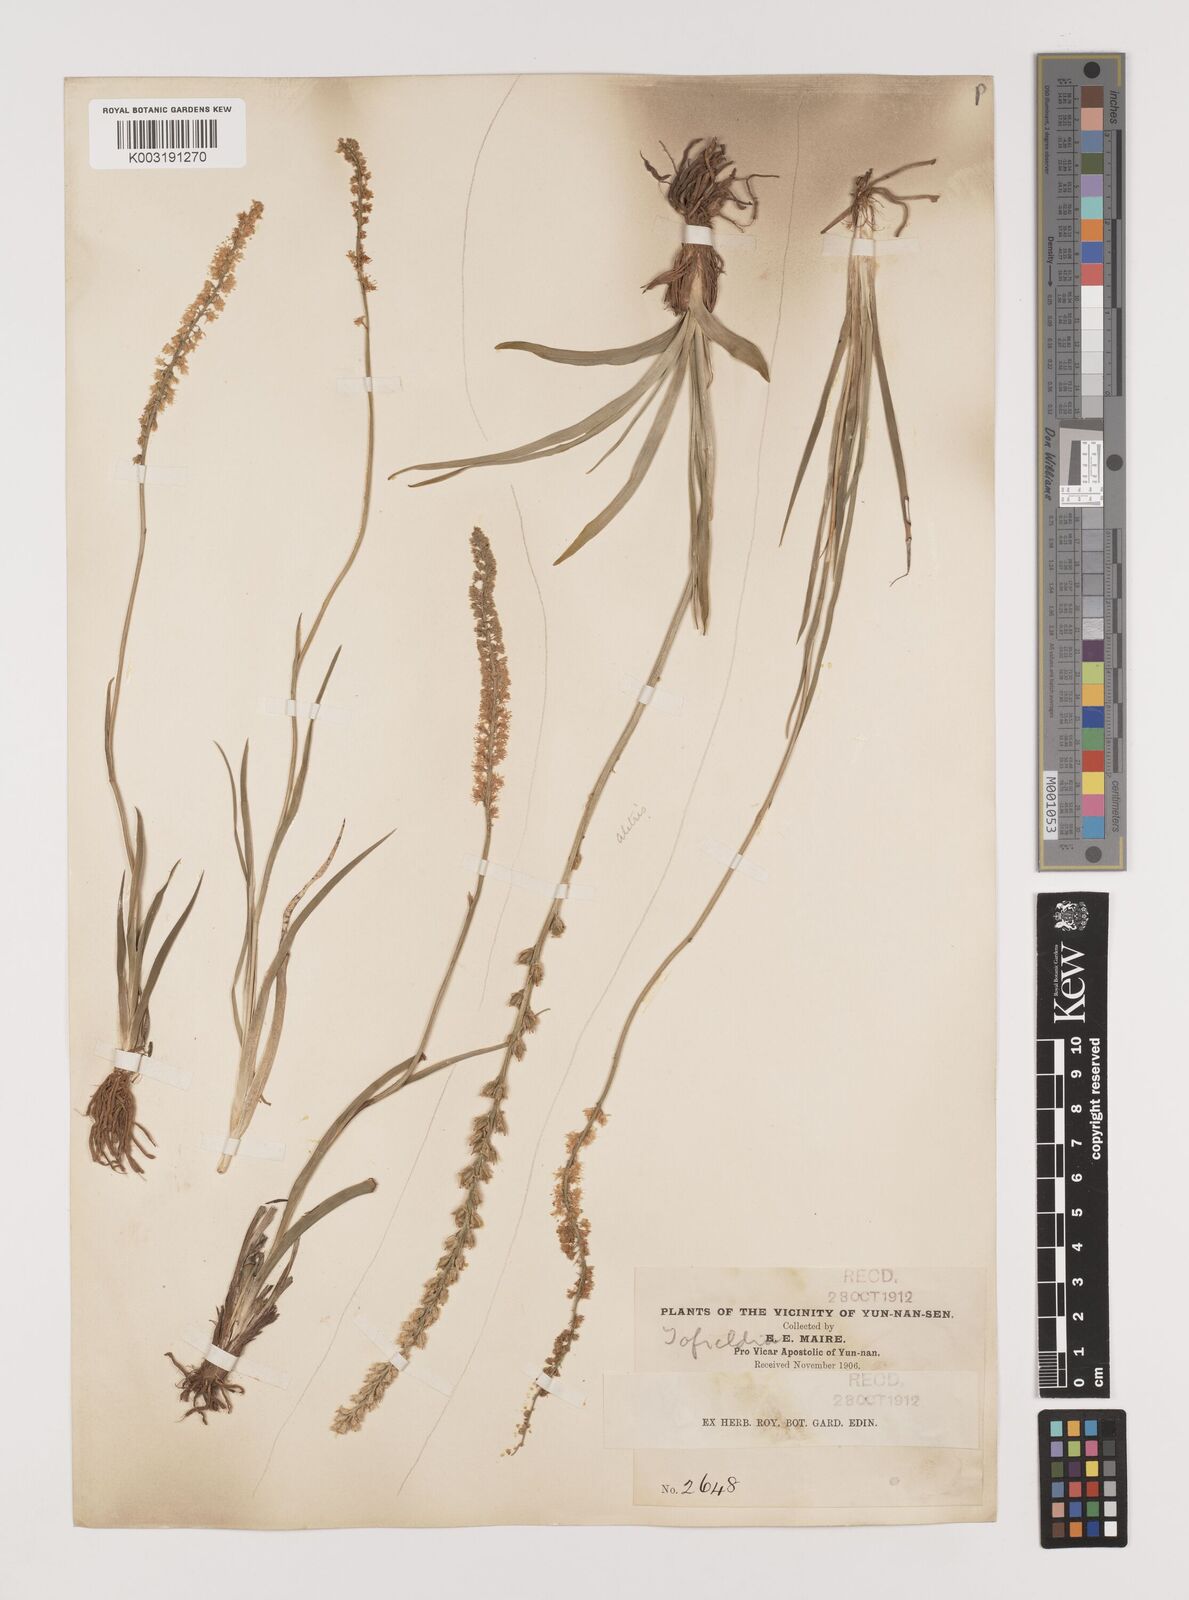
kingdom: Plantae
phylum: Tracheophyta
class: Liliopsida
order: Alismatales
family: Tofieldiaceae
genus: Tofieldia
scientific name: Tofieldia divergens
